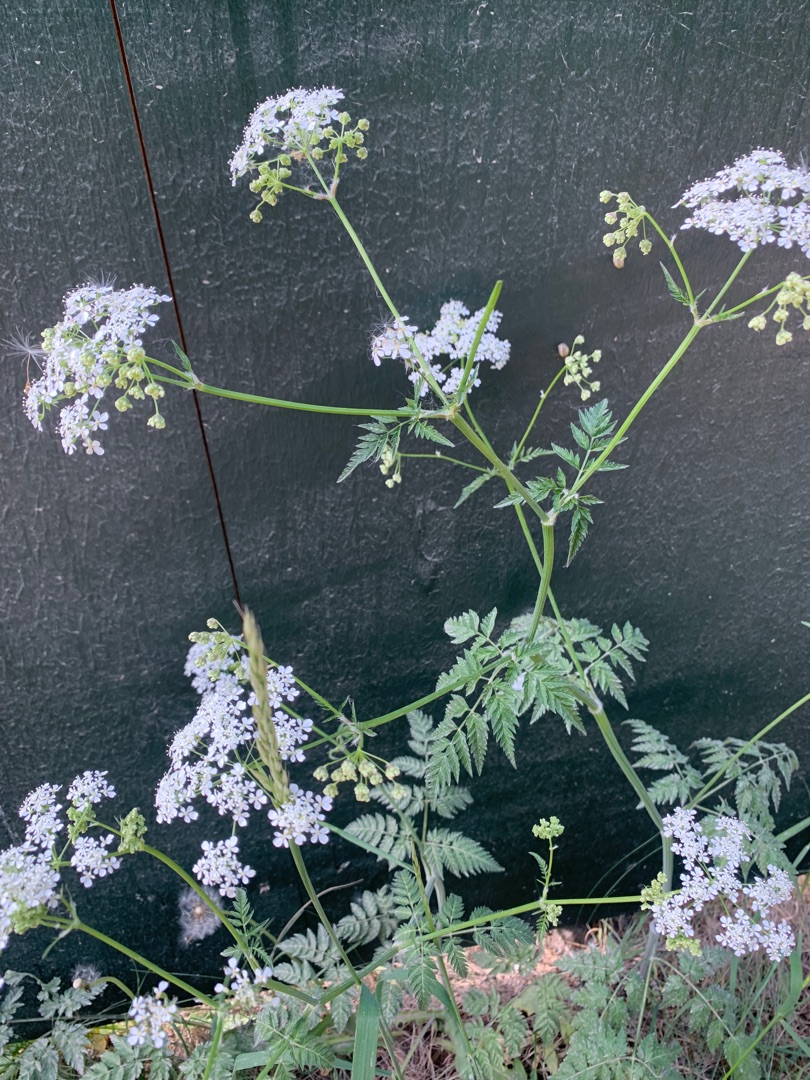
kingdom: Plantae
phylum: Tracheophyta
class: Magnoliopsida
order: Apiales
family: Apiaceae
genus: Anthriscus
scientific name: Anthriscus sylvestris
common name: Vild kørvel
